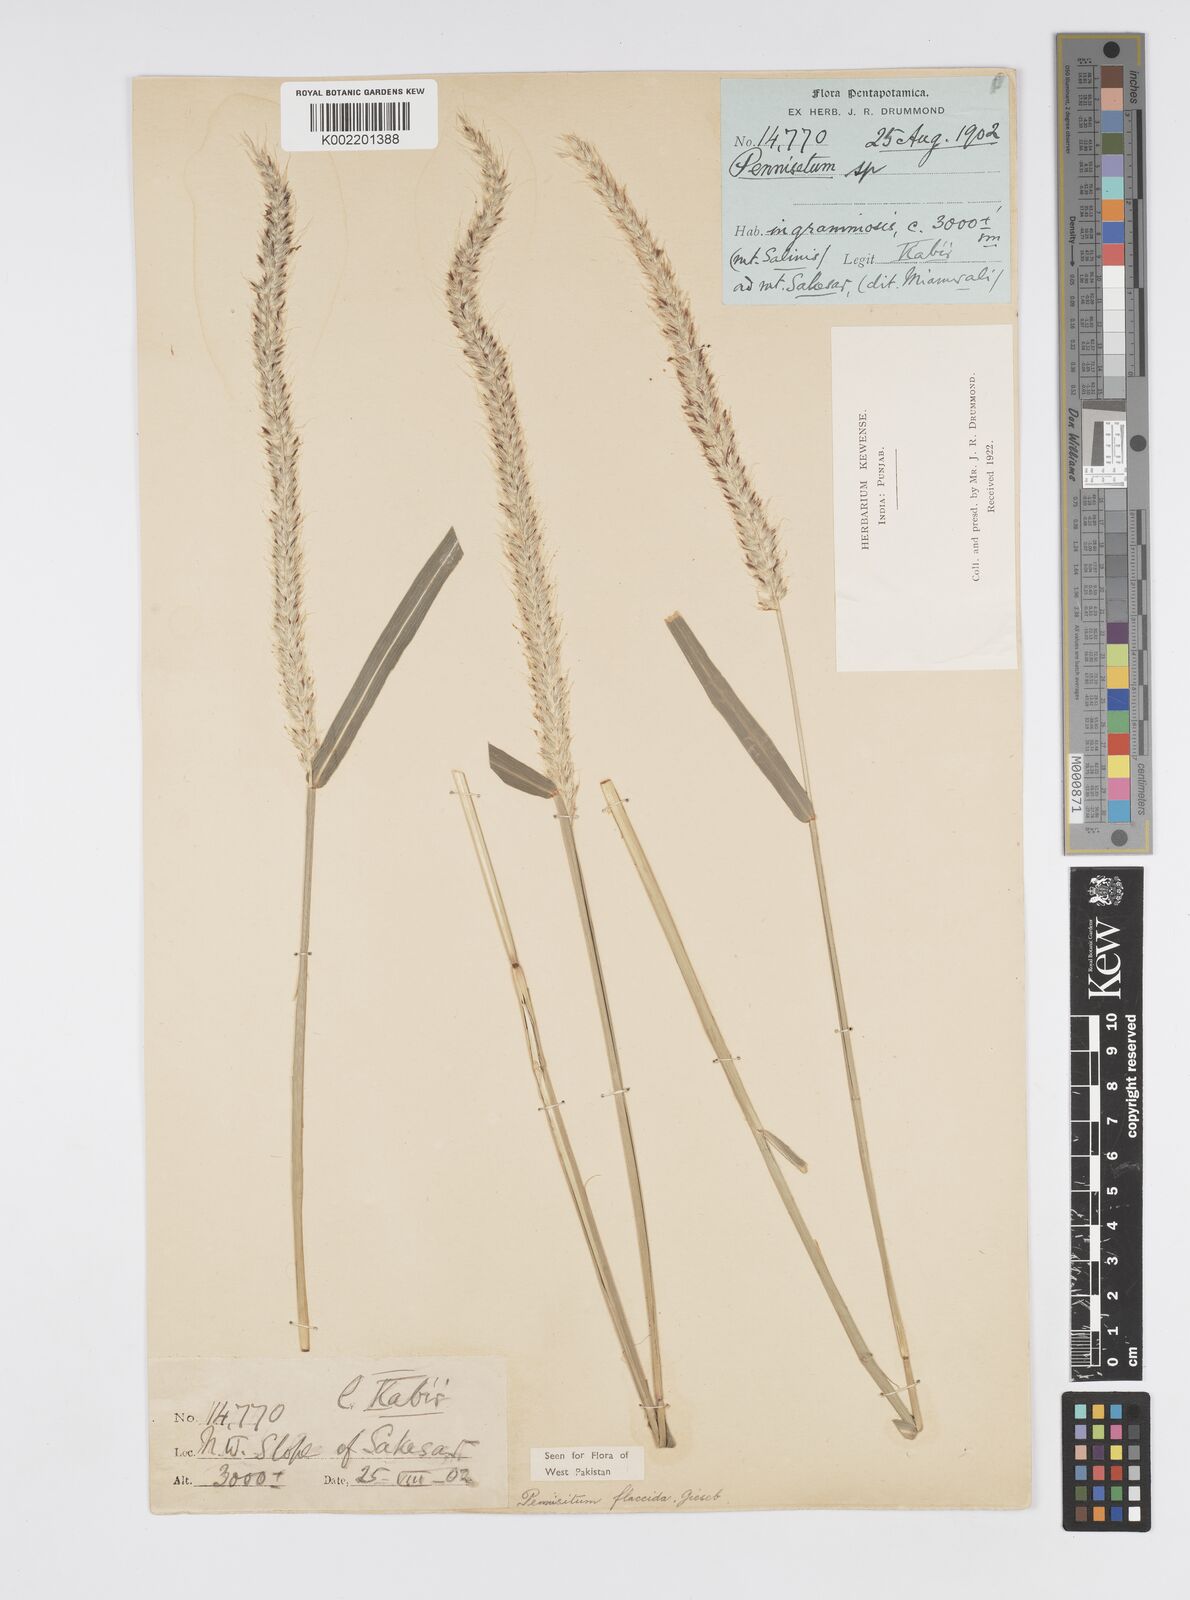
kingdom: Plantae
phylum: Tracheophyta
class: Liliopsida
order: Poales
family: Poaceae
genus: Cenchrus
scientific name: Cenchrus flaccidus
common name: Flaccid grass
